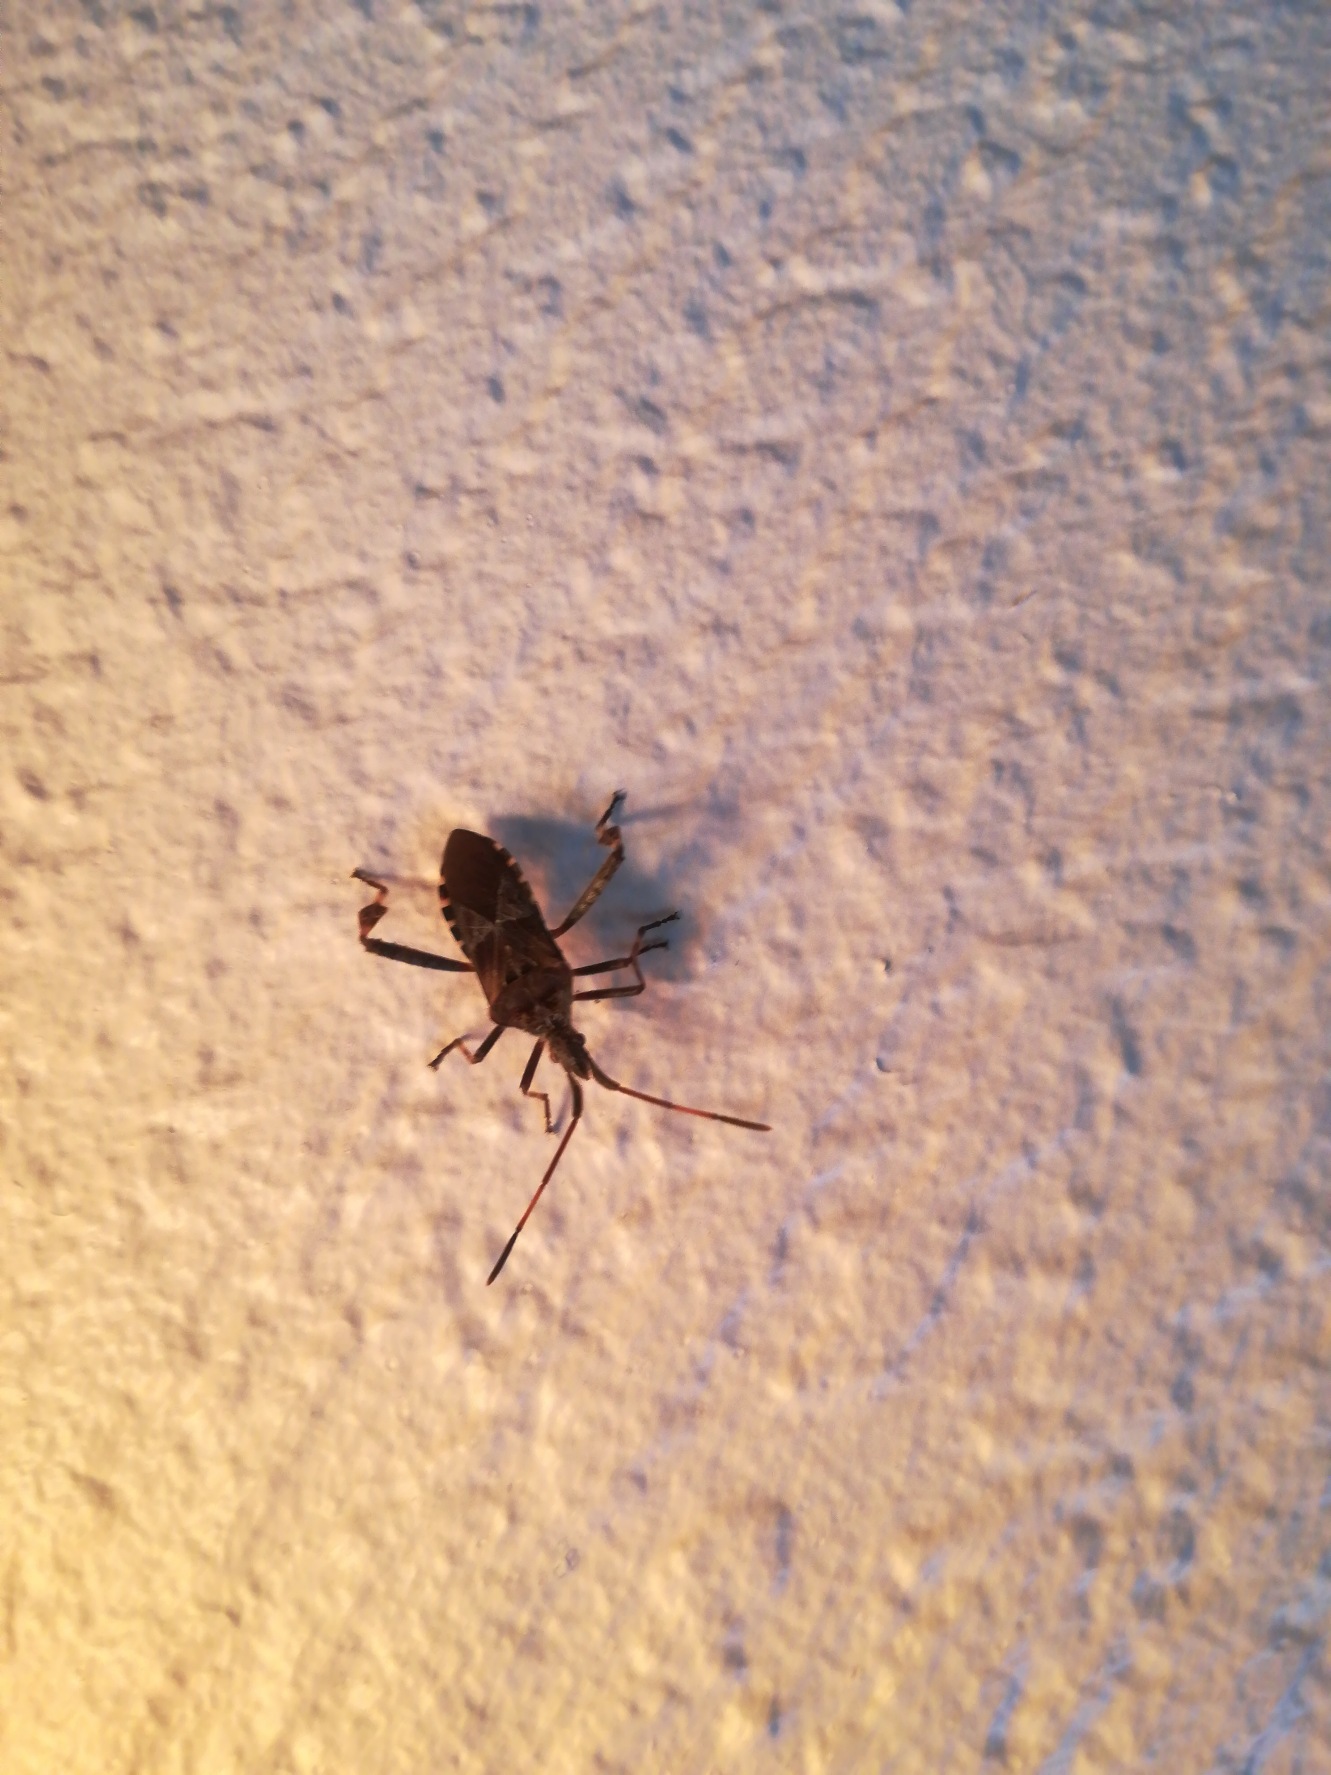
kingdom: Animalia
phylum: Arthropoda
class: Insecta
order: Hemiptera
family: Coreidae
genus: Leptoglossus
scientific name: Leptoglossus occidentalis
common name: Amerikansk fyrretæge
